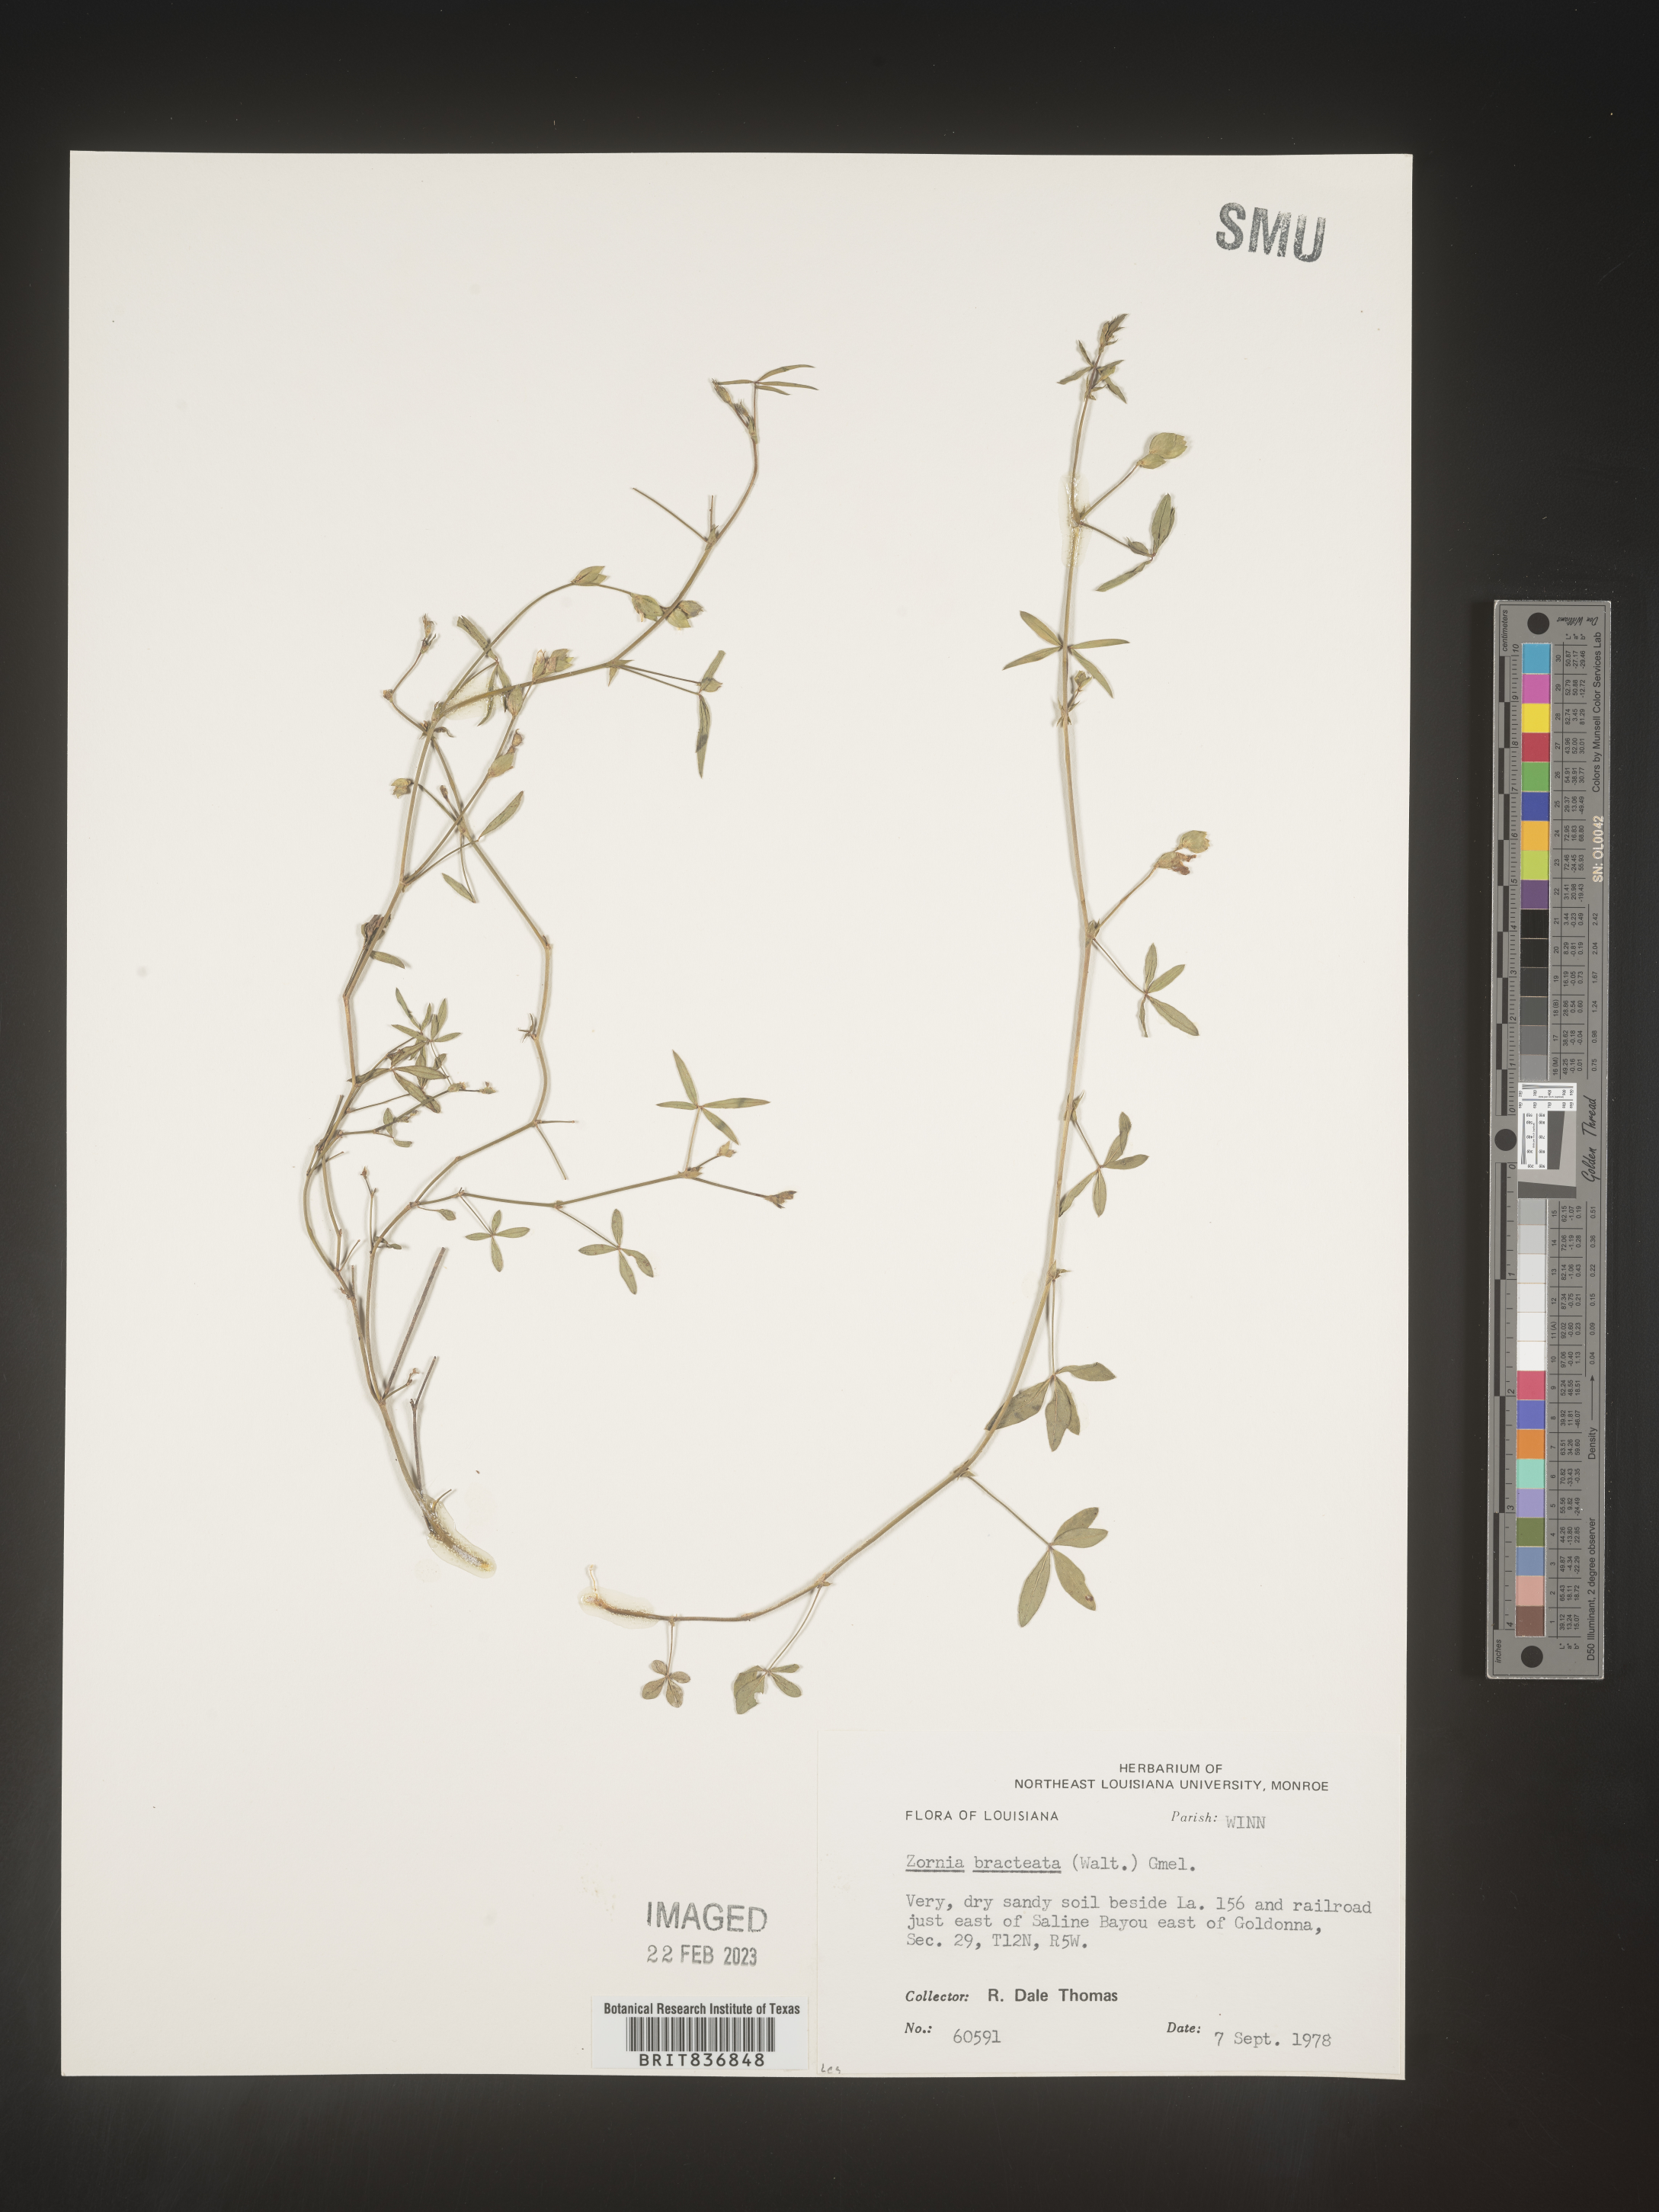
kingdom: Plantae
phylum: Tracheophyta
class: Magnoliopsida
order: Fabales
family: Fabaceae
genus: Zornia
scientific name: Zornia
